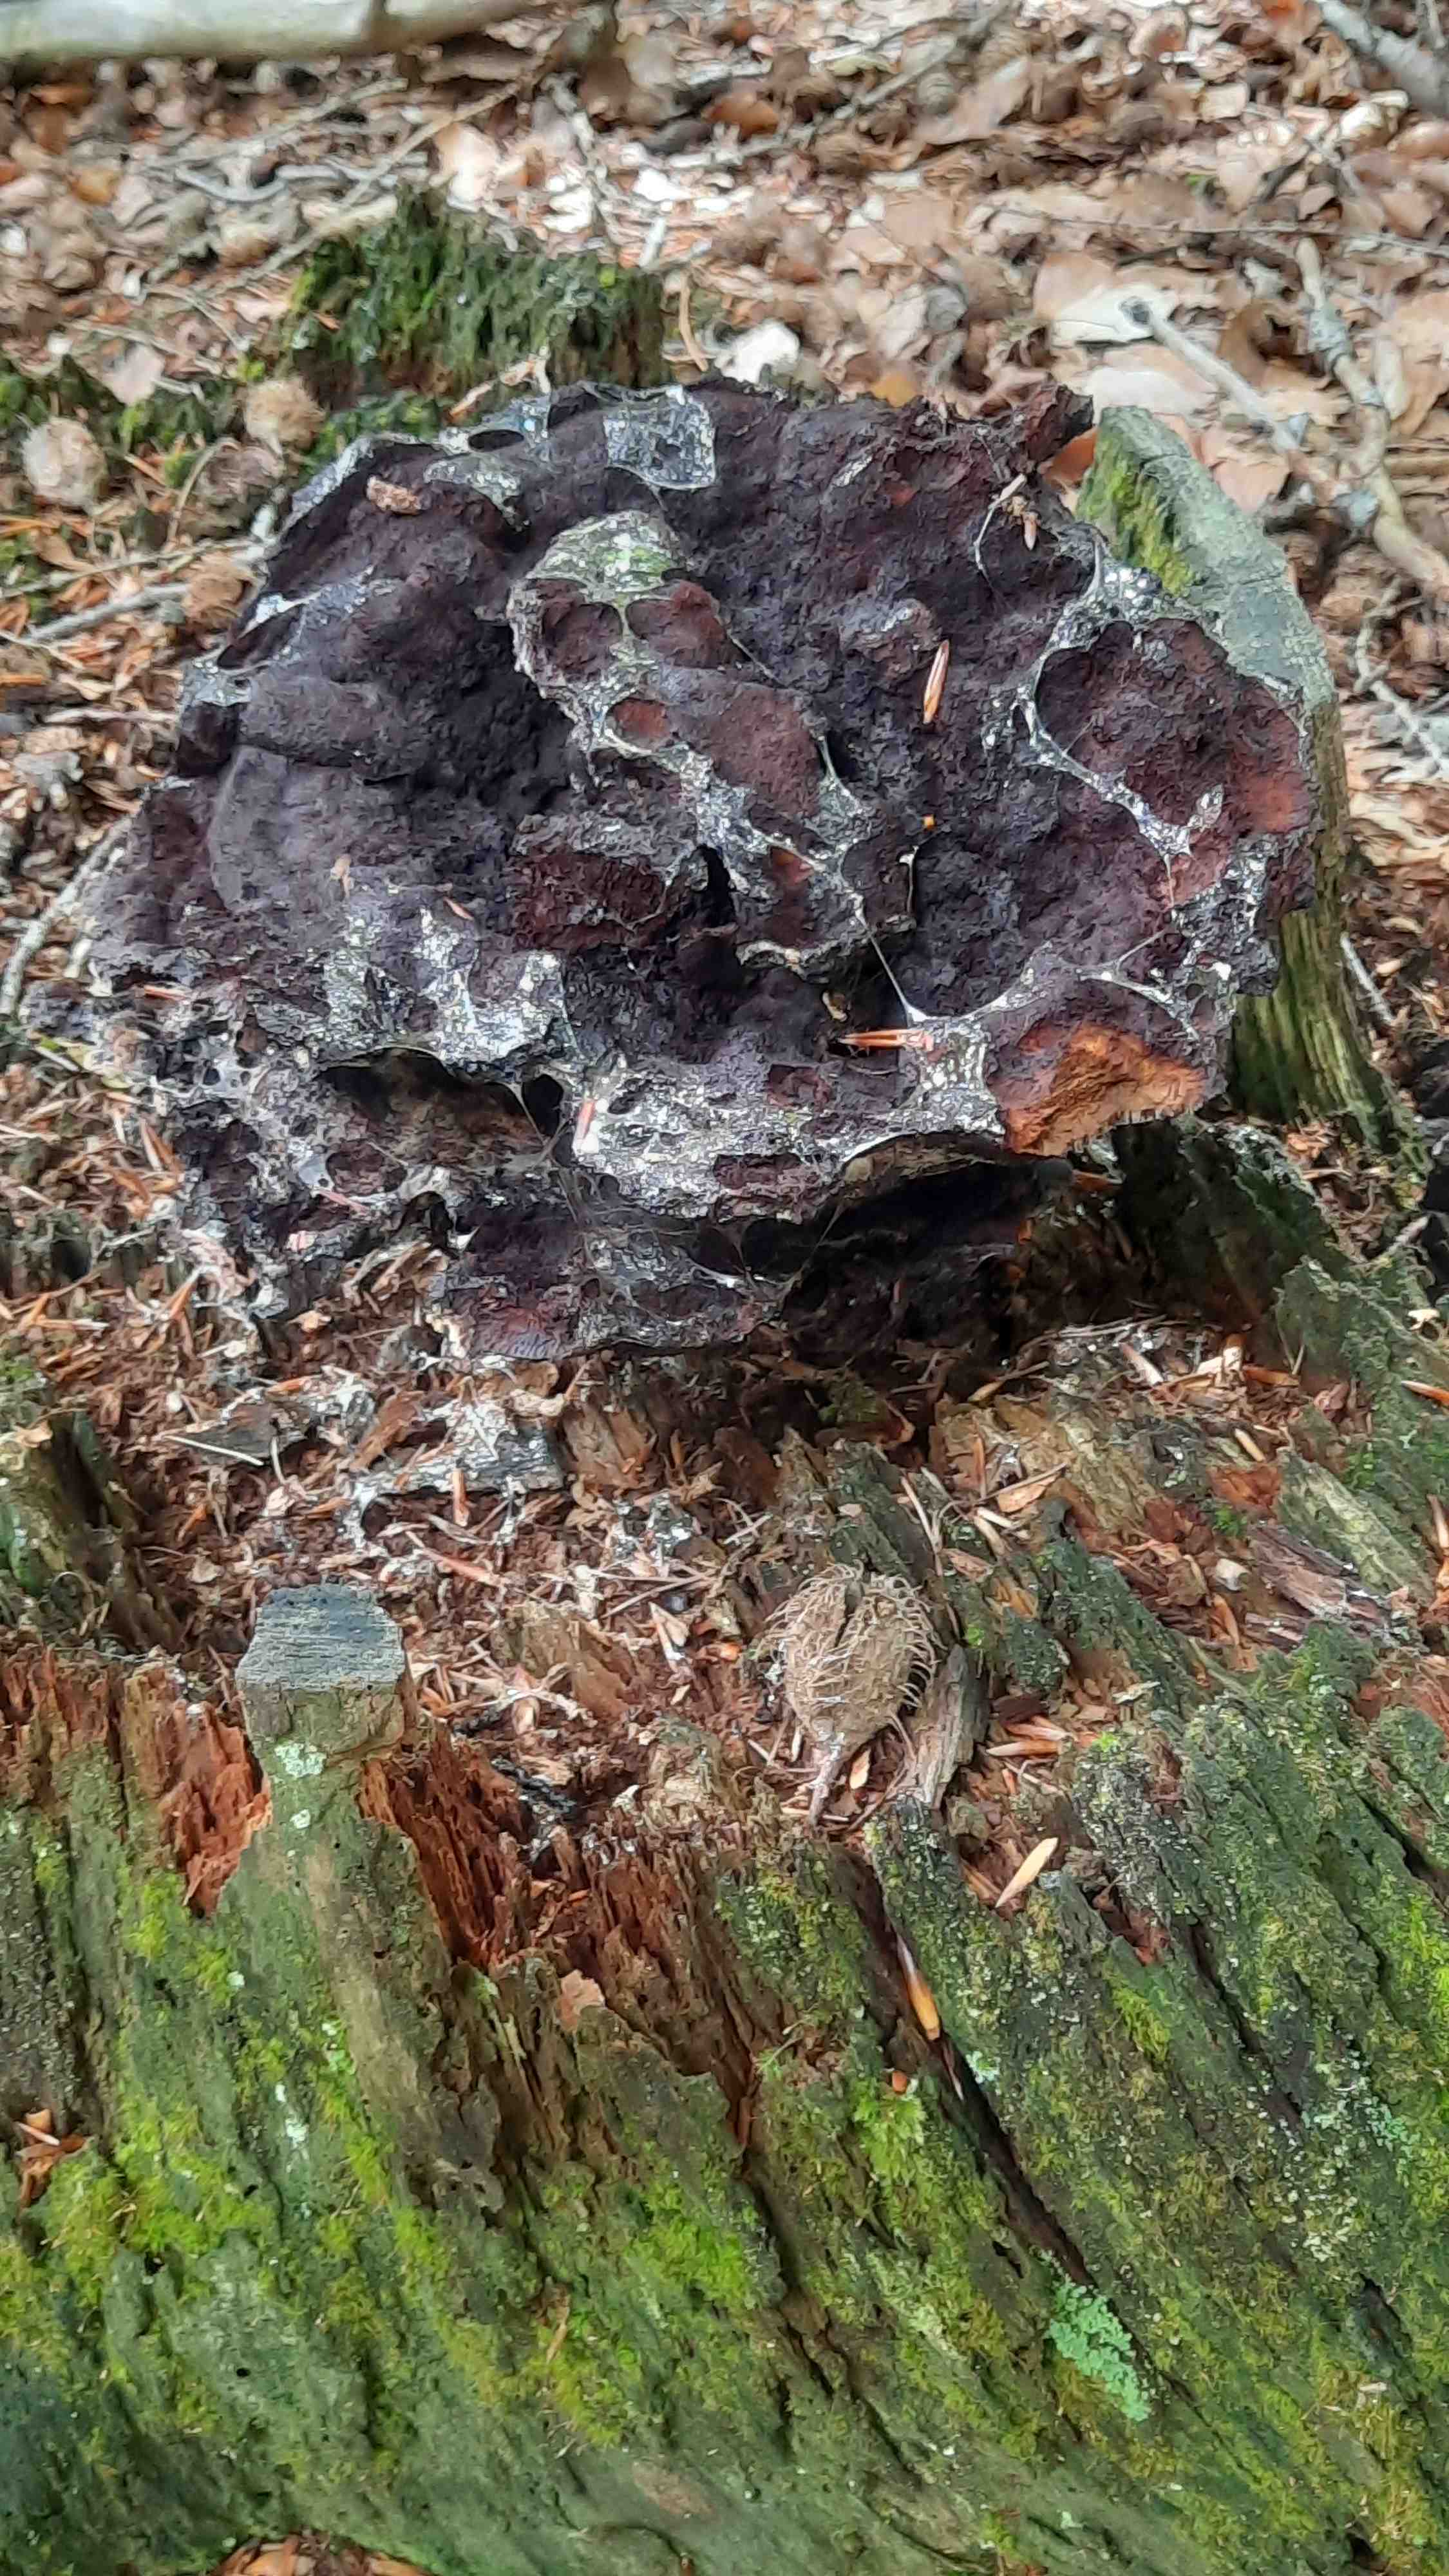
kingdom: Fungi
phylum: Basidiomycota
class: Agaricomycetes
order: Polyporales
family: Laetiporaceae
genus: Phaeolus
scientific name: Phaeolus schweinitzii
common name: brunporesvamp
